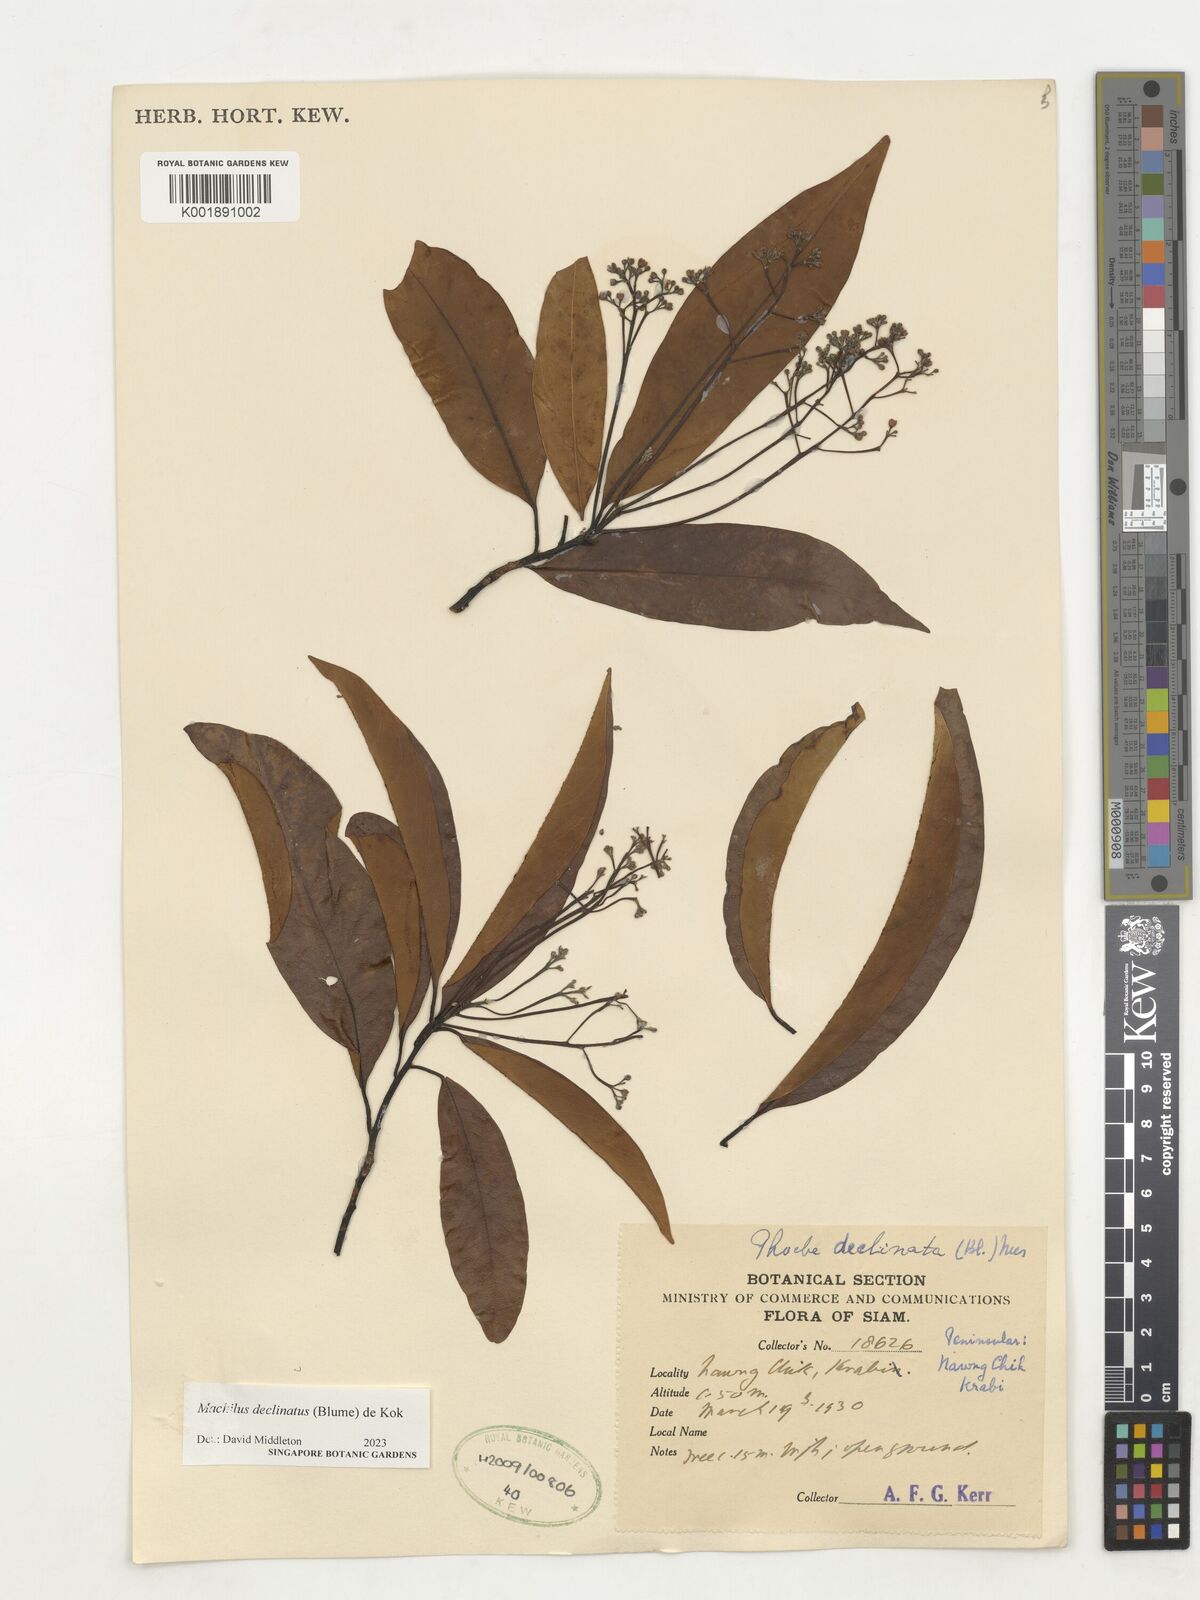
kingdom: Plantae
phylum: Tracheophyta
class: Magnoliopsida
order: Laurales
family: Lauraceae
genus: Machilus
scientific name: Machilus declinata
